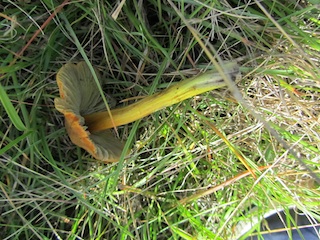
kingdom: Fungi
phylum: Basidiomycota
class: Agaricomycetes
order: Agaricales
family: Hygrophoraceae
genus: Hygrocybe
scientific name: Hygrocybe conica
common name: kegle-vokshat
